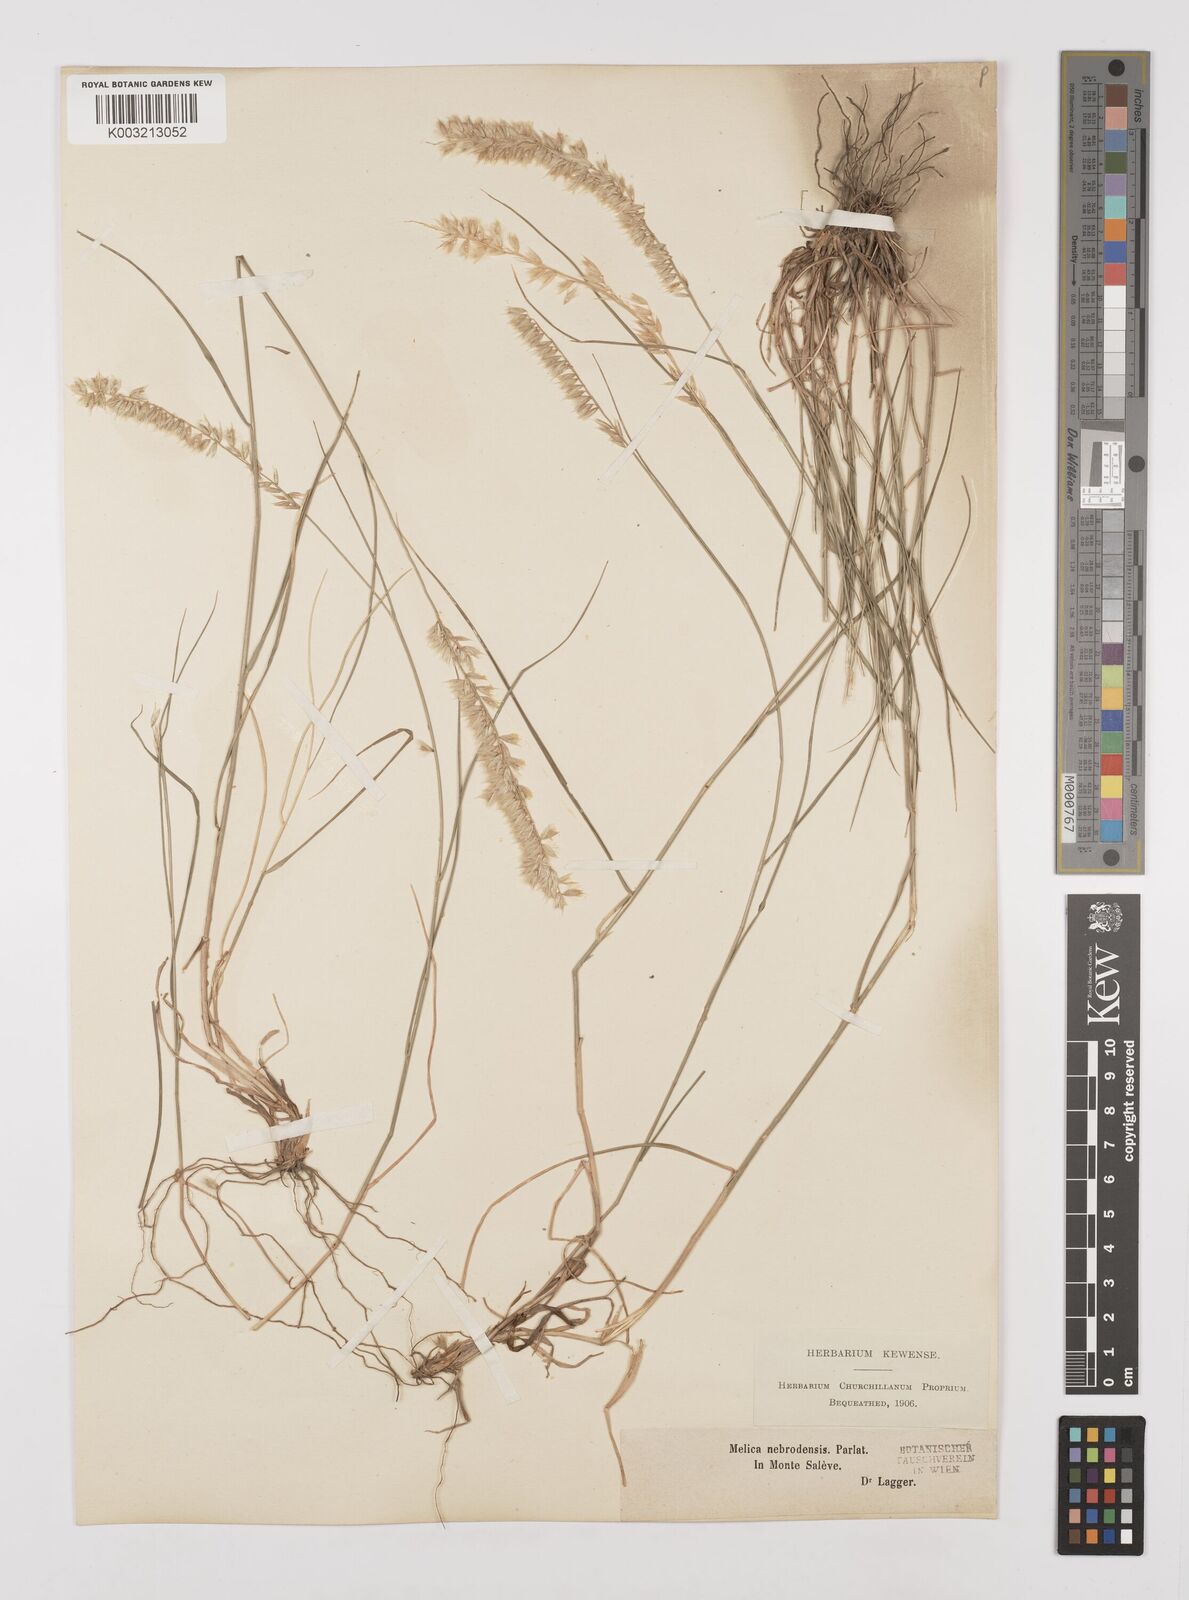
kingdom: Plantae
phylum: Tracheophyta
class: Liliopsida
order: Poales
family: Poaceae
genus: Melica
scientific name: Melica ciliata
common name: Hairy melicgrass
